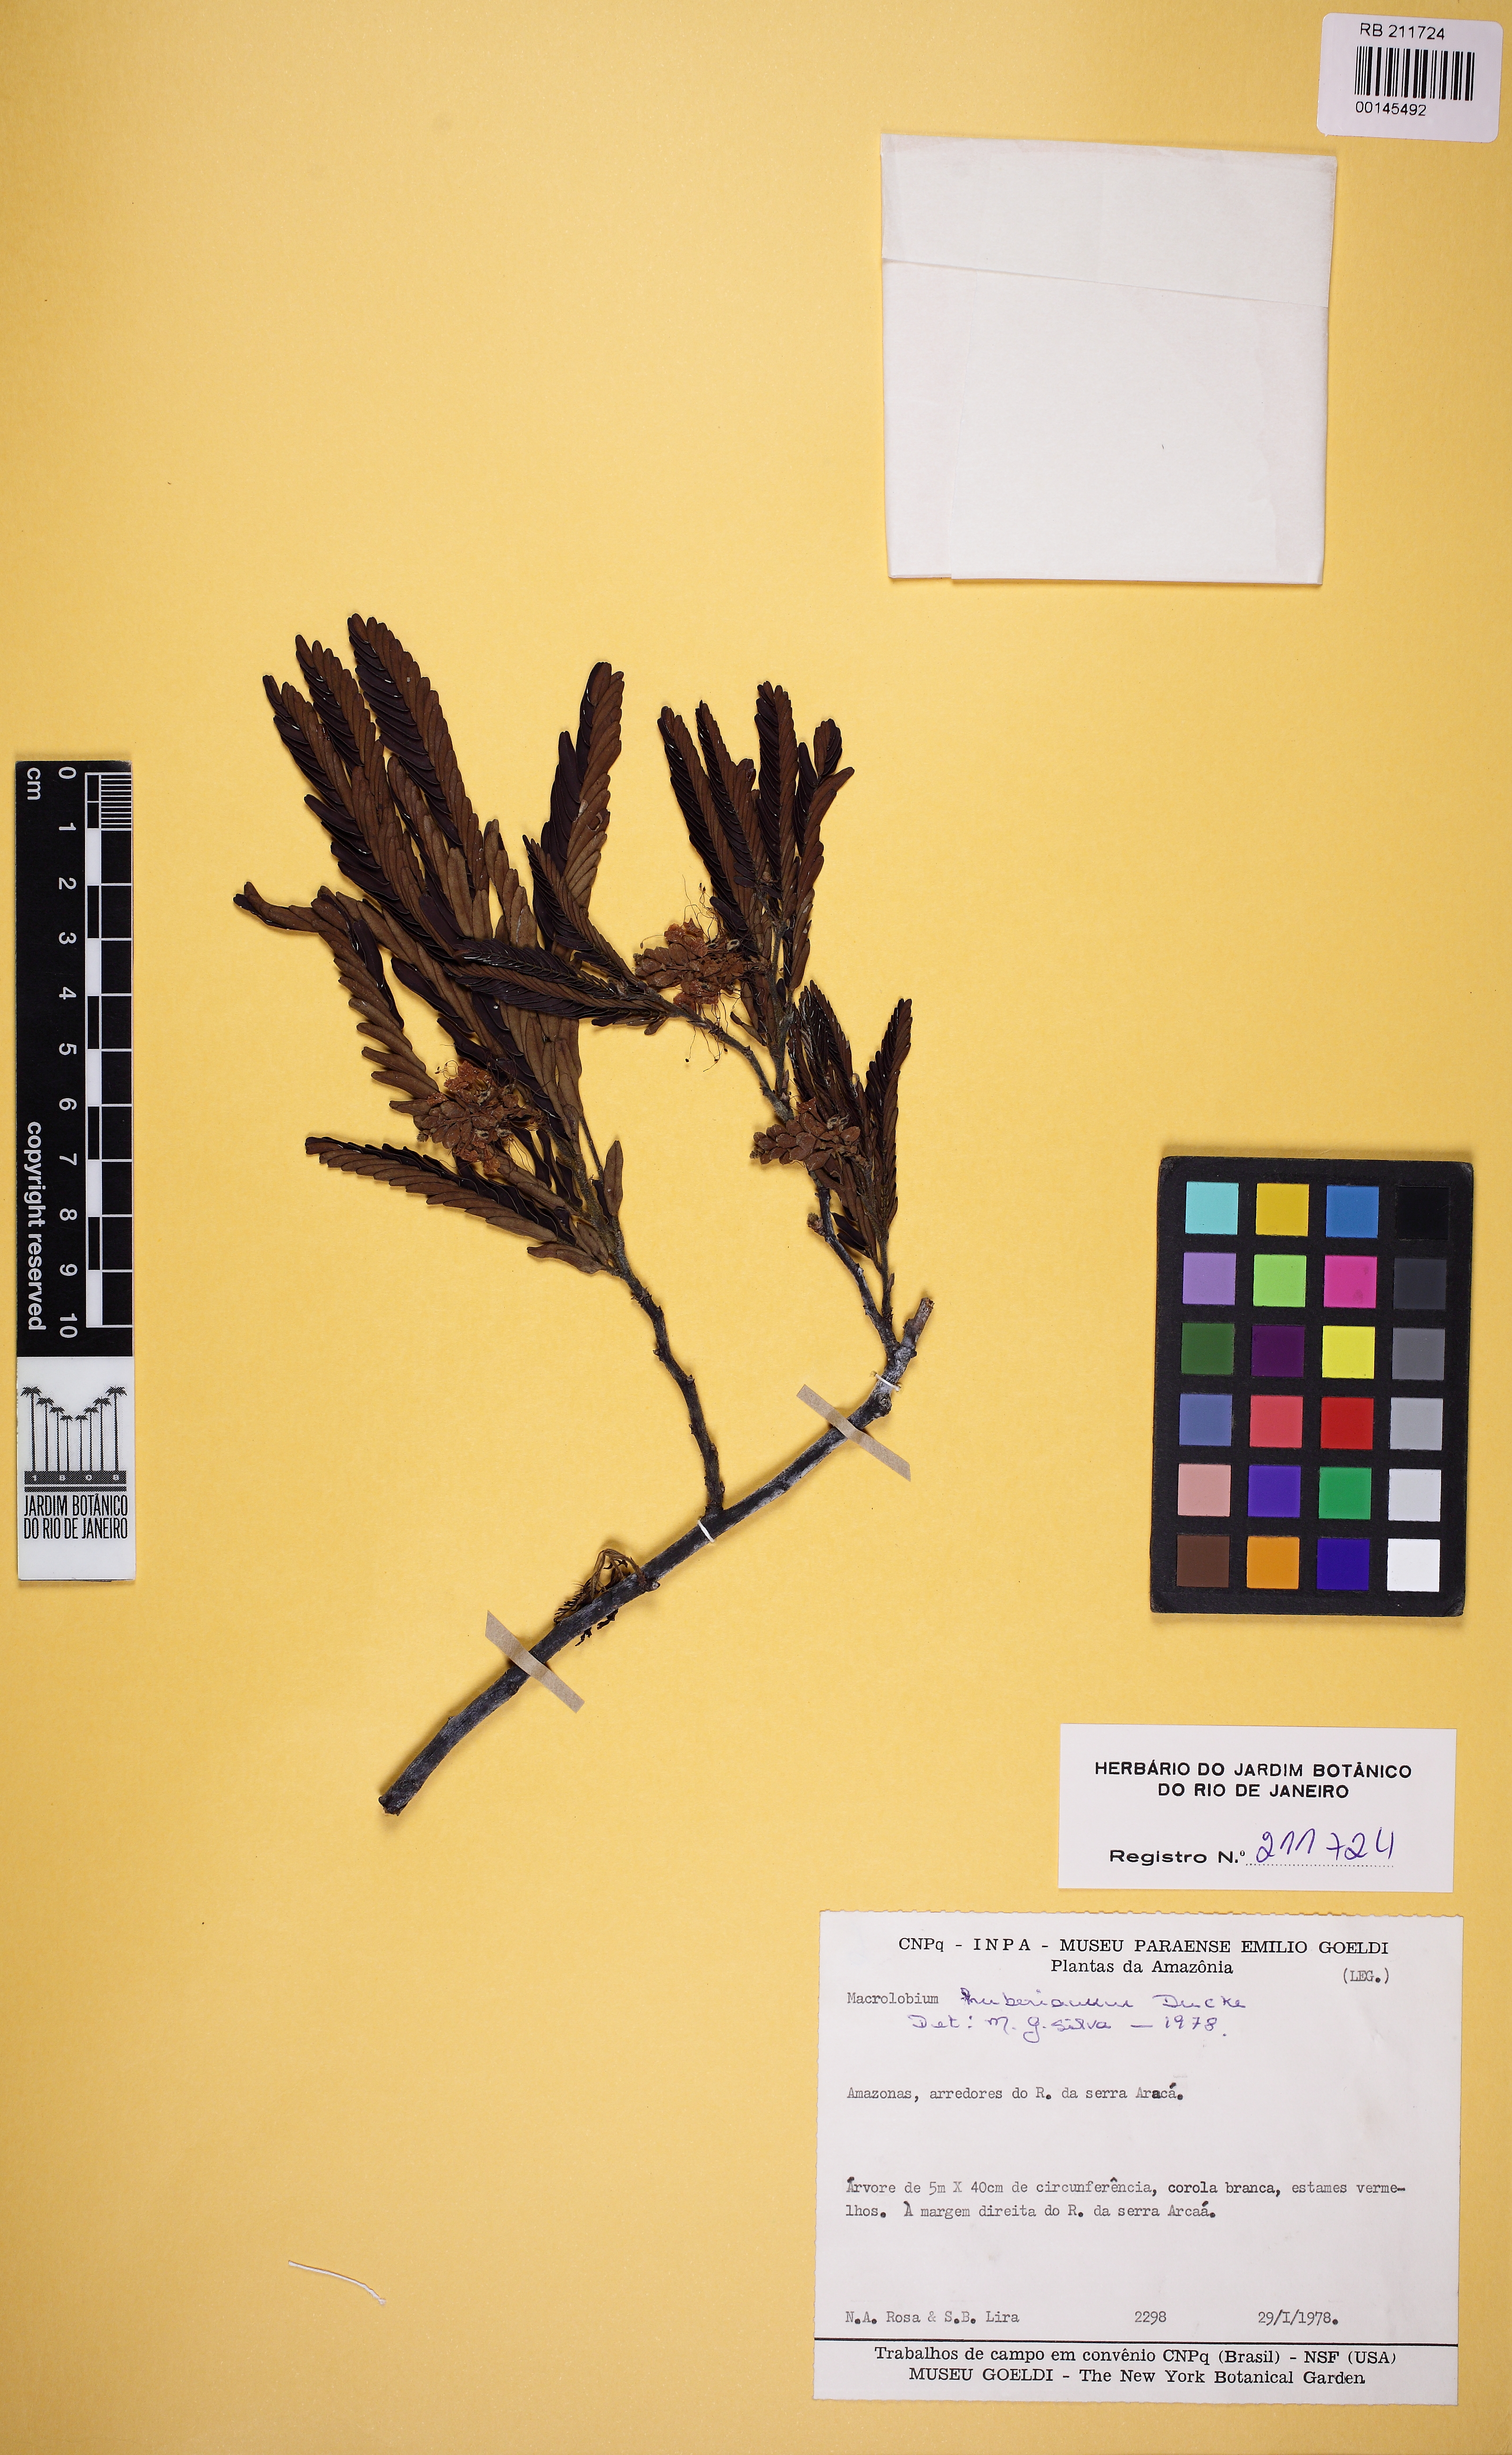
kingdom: Plantae
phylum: Tracheophyta
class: Magnoliopsida
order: Fabales
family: Fabaceae
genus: Macrolobium
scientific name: Macrolobium huberianum
